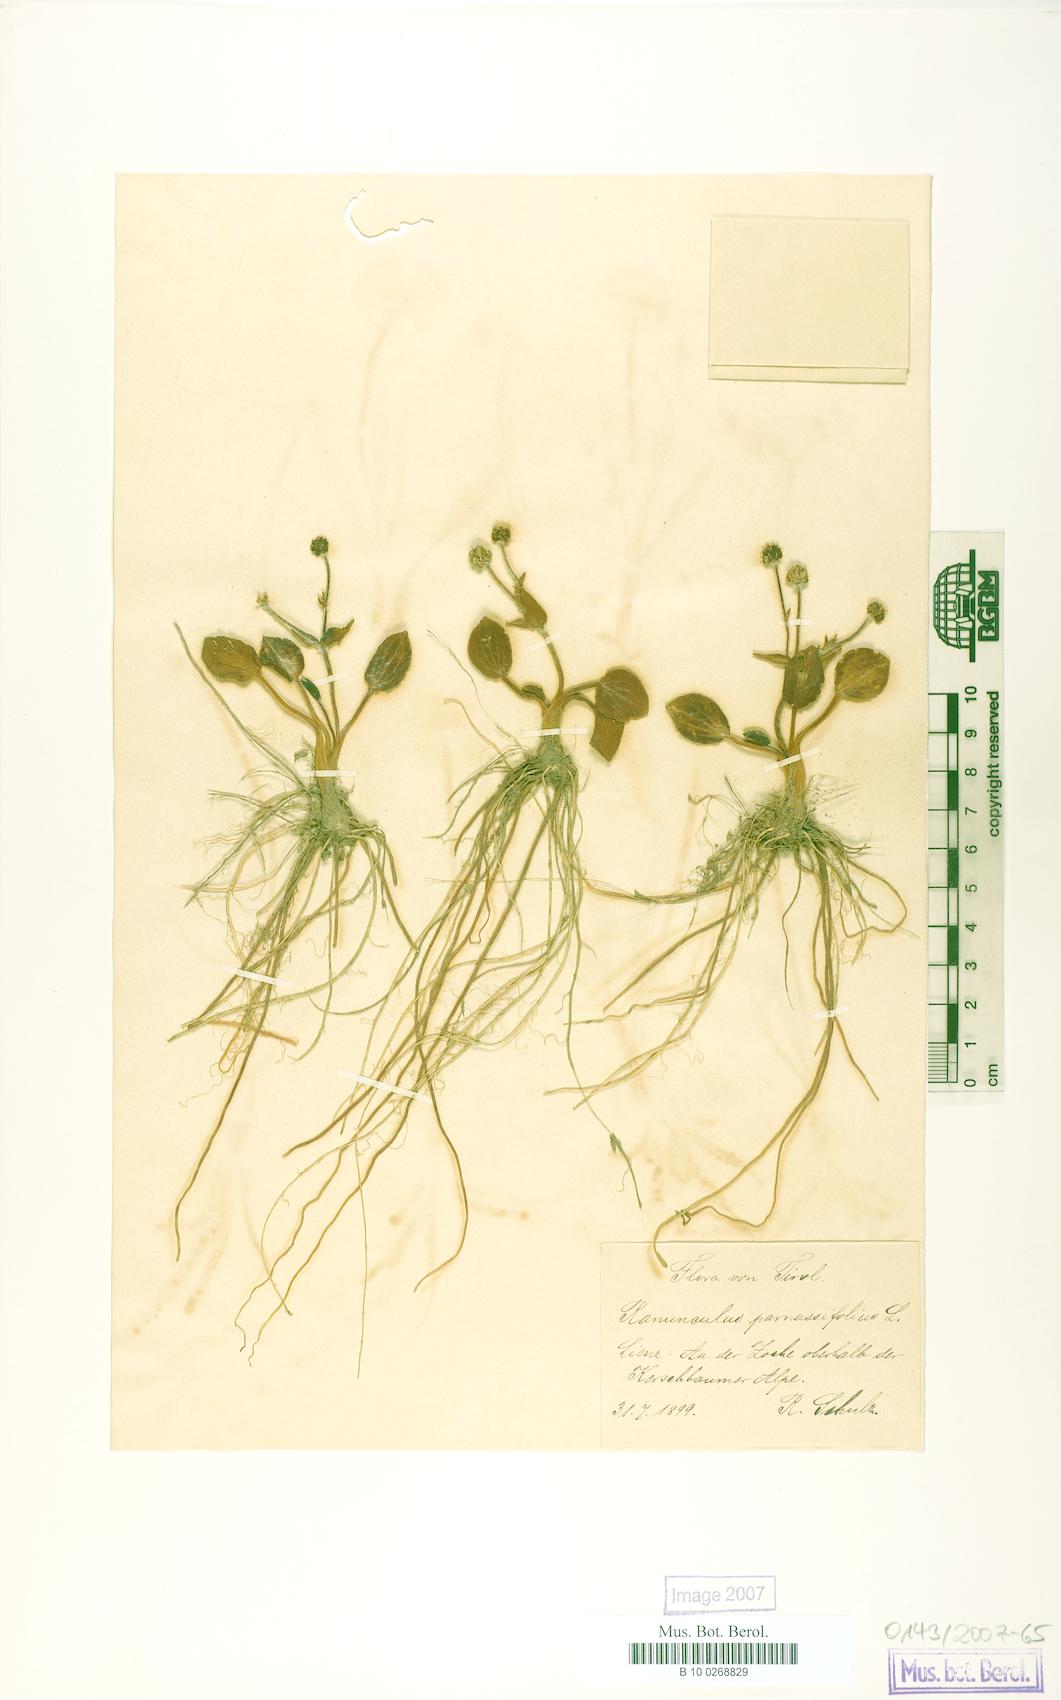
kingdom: Plantae
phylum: Tracheophyta
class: Magnoliopsida
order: Ranunculales
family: Ranunculaceae
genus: Ranunculus
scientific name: Ranunculus parnassiifolius
